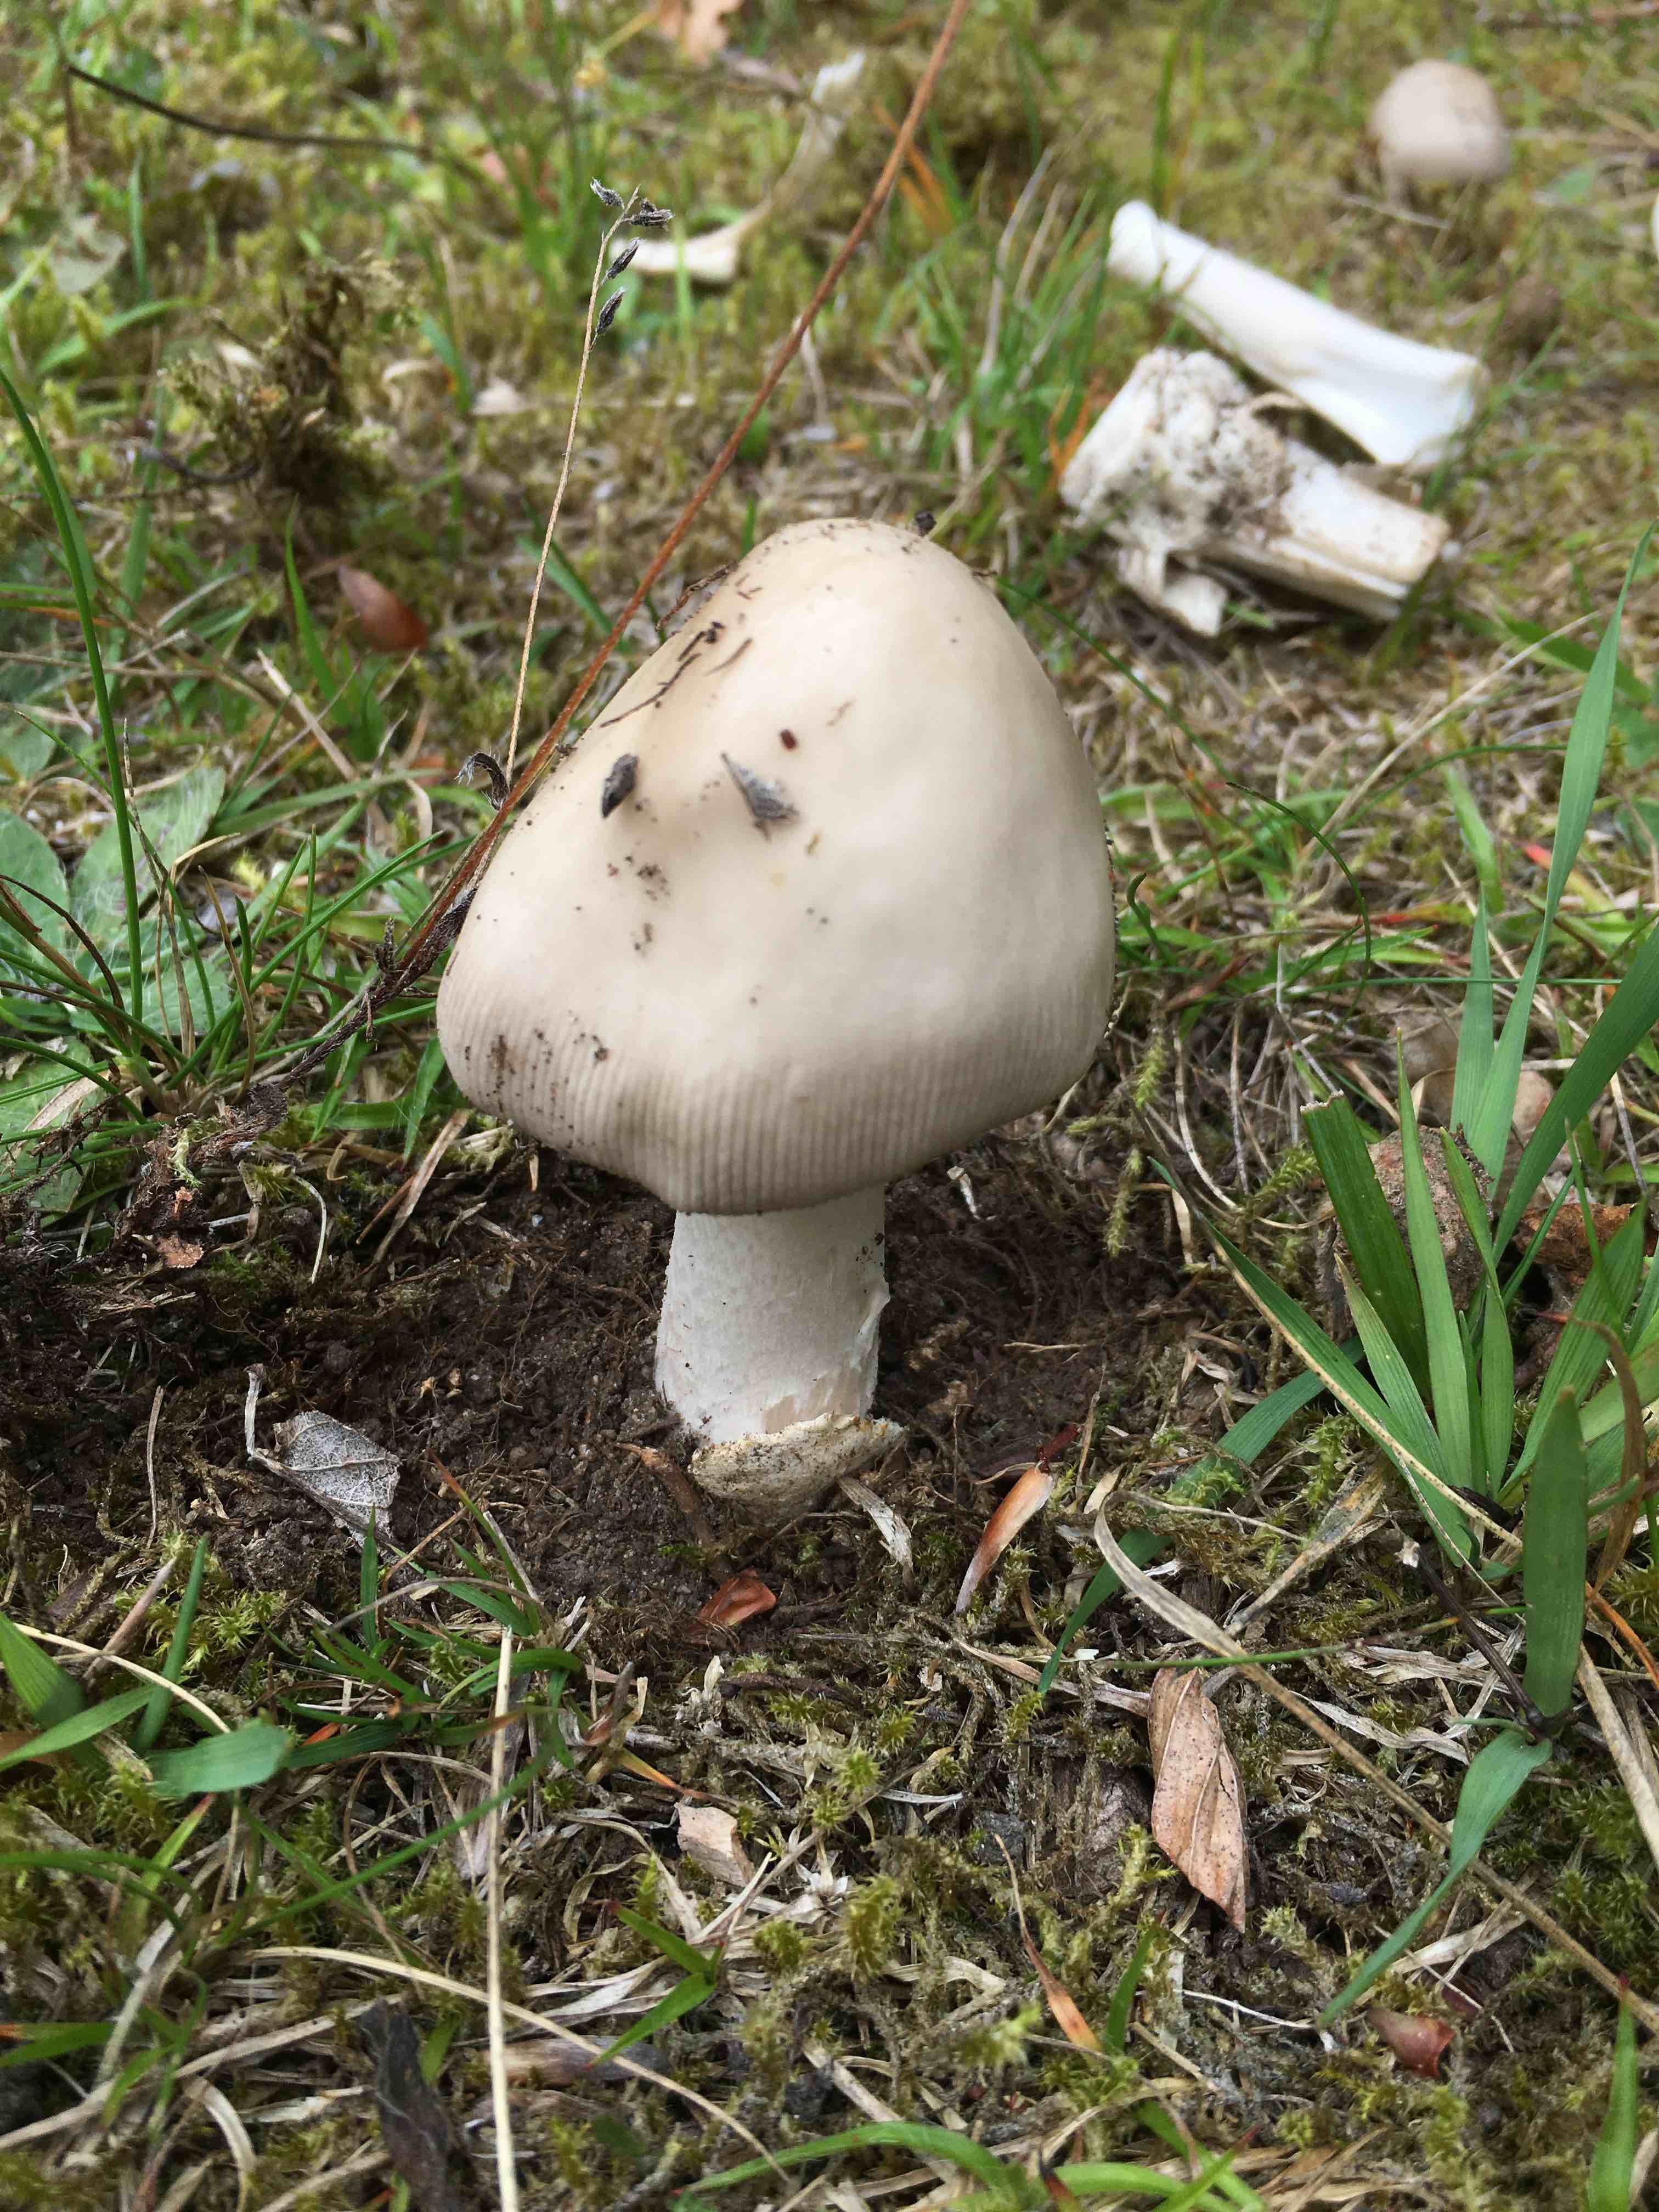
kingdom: Fungi
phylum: Basidiomycota
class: Agaricomycetes
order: Agaricales
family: Amanitaceae
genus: Amanita
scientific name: Amanita
